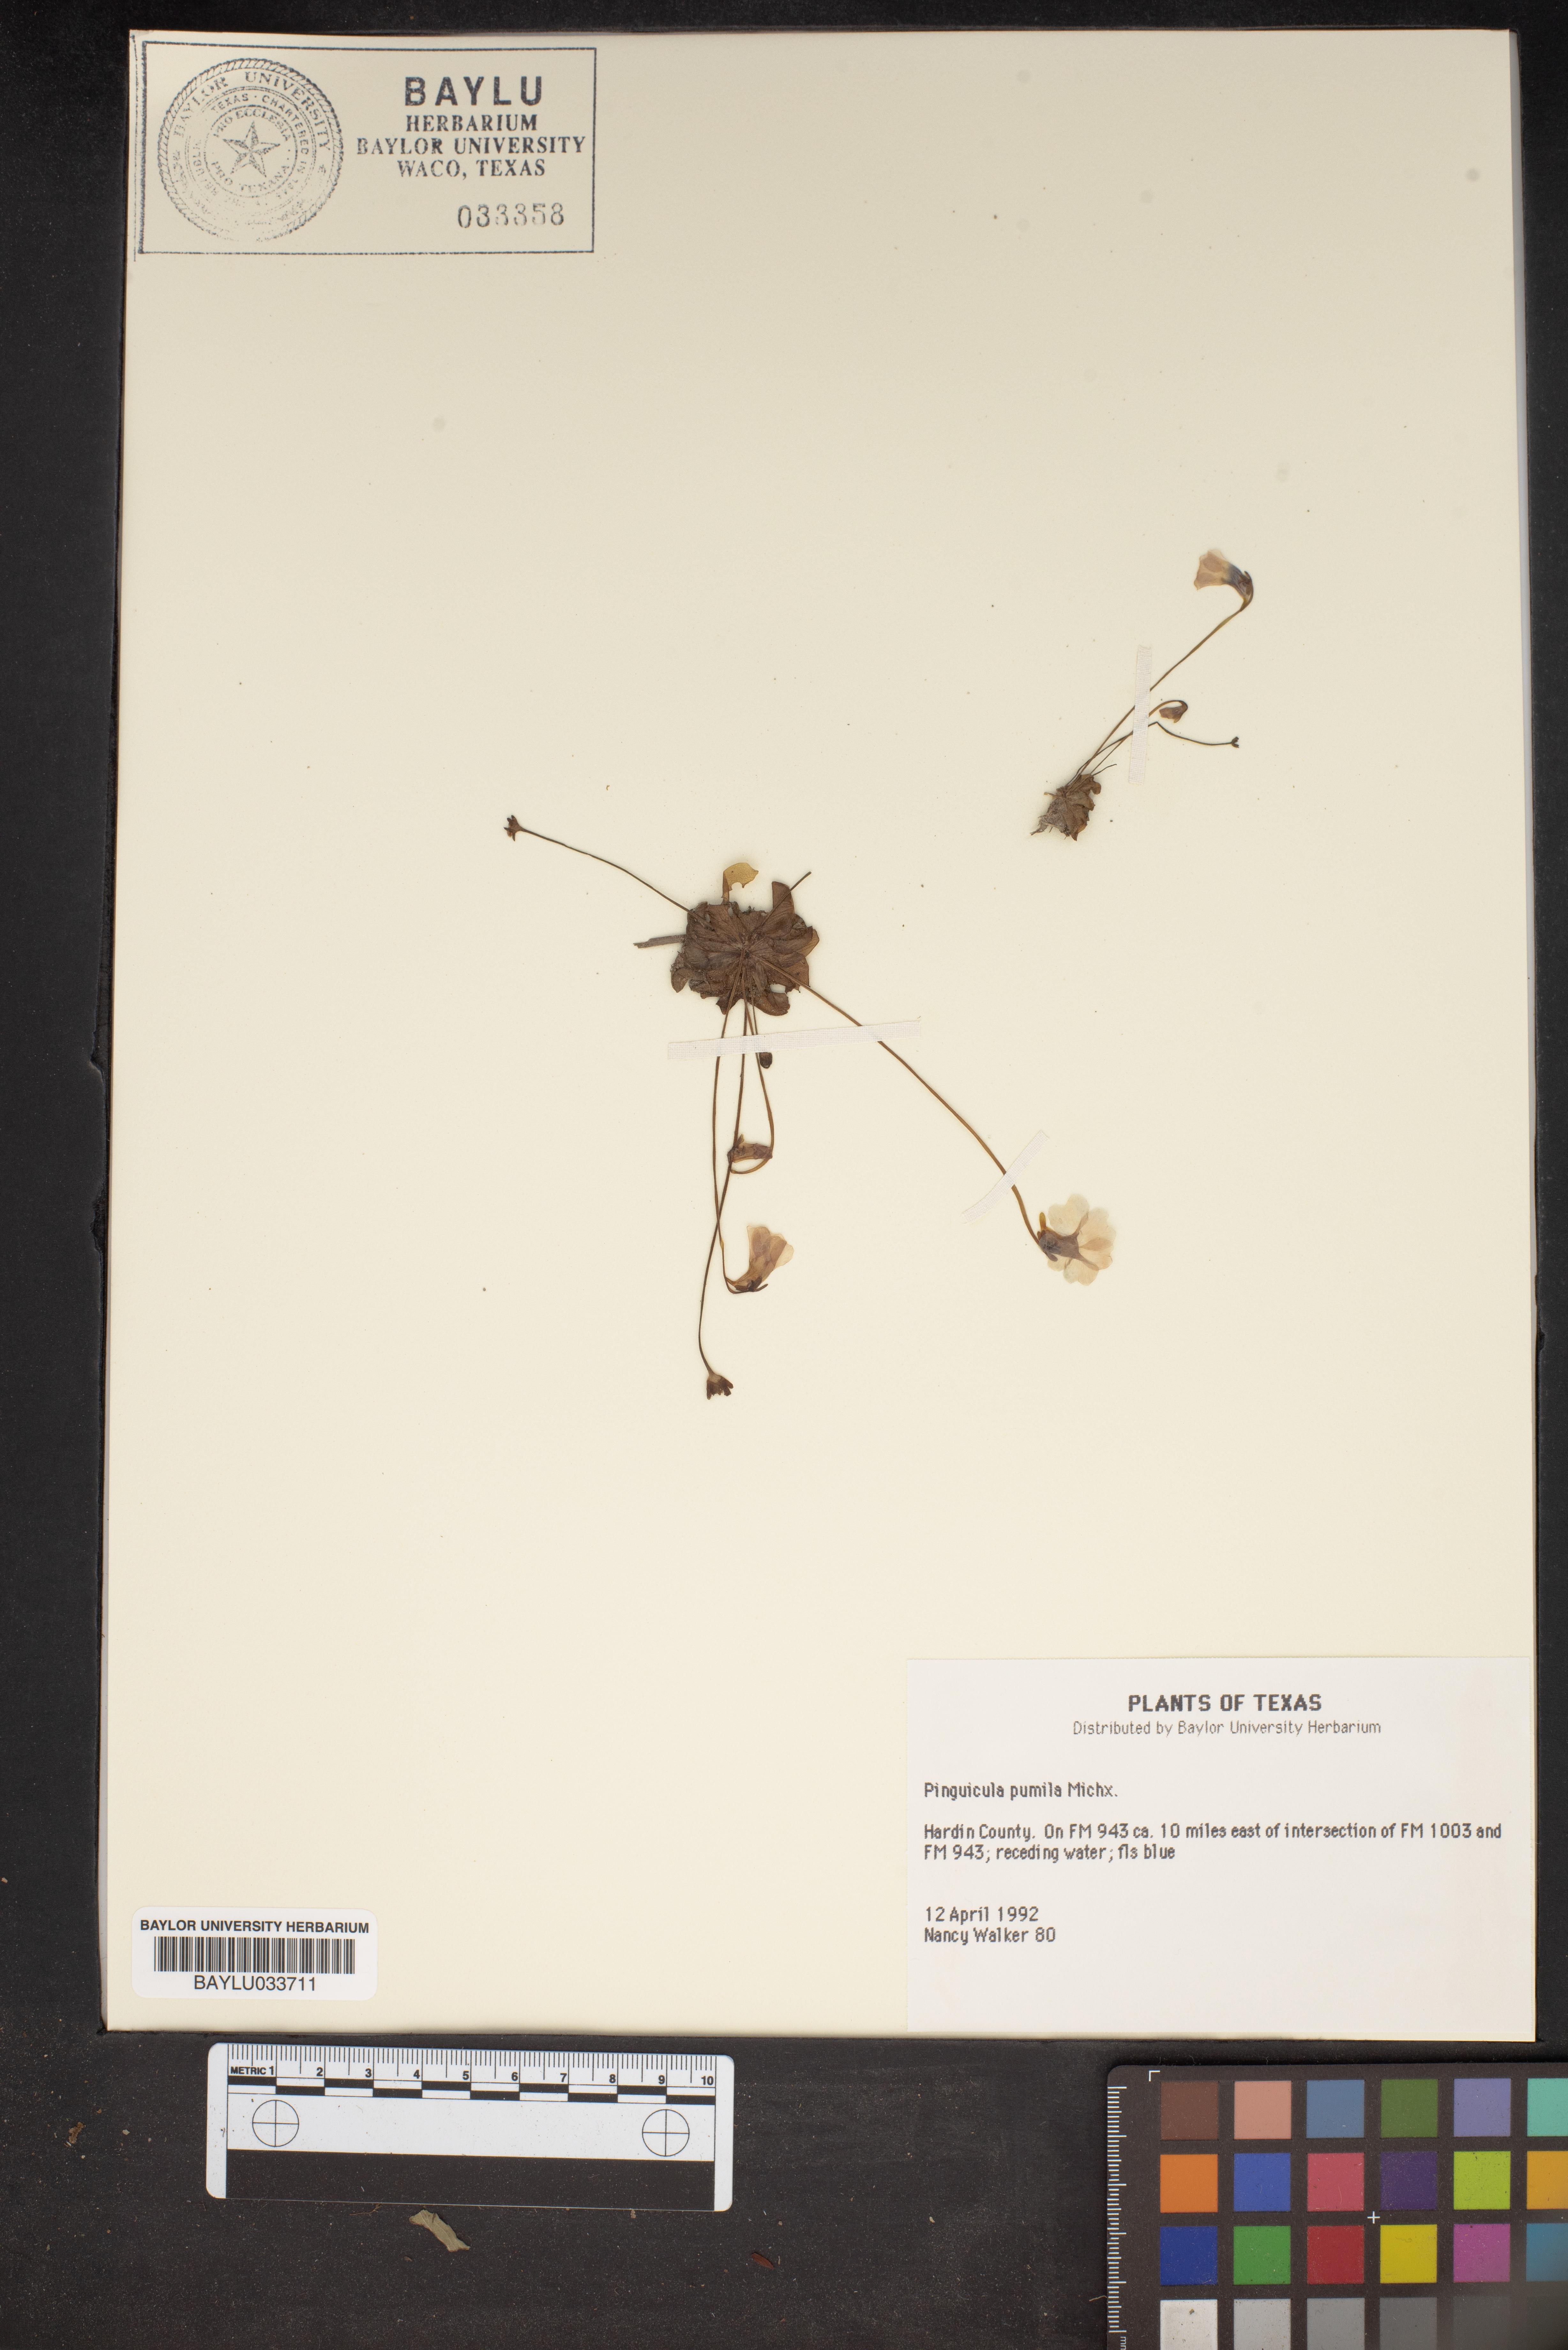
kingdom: Plantae
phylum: Tracheophyta
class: Magnoliopsida
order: Lamiales
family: Lentibulariaceae
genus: Pinguicula
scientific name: Pinguicula pumila
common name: Small butterwort
